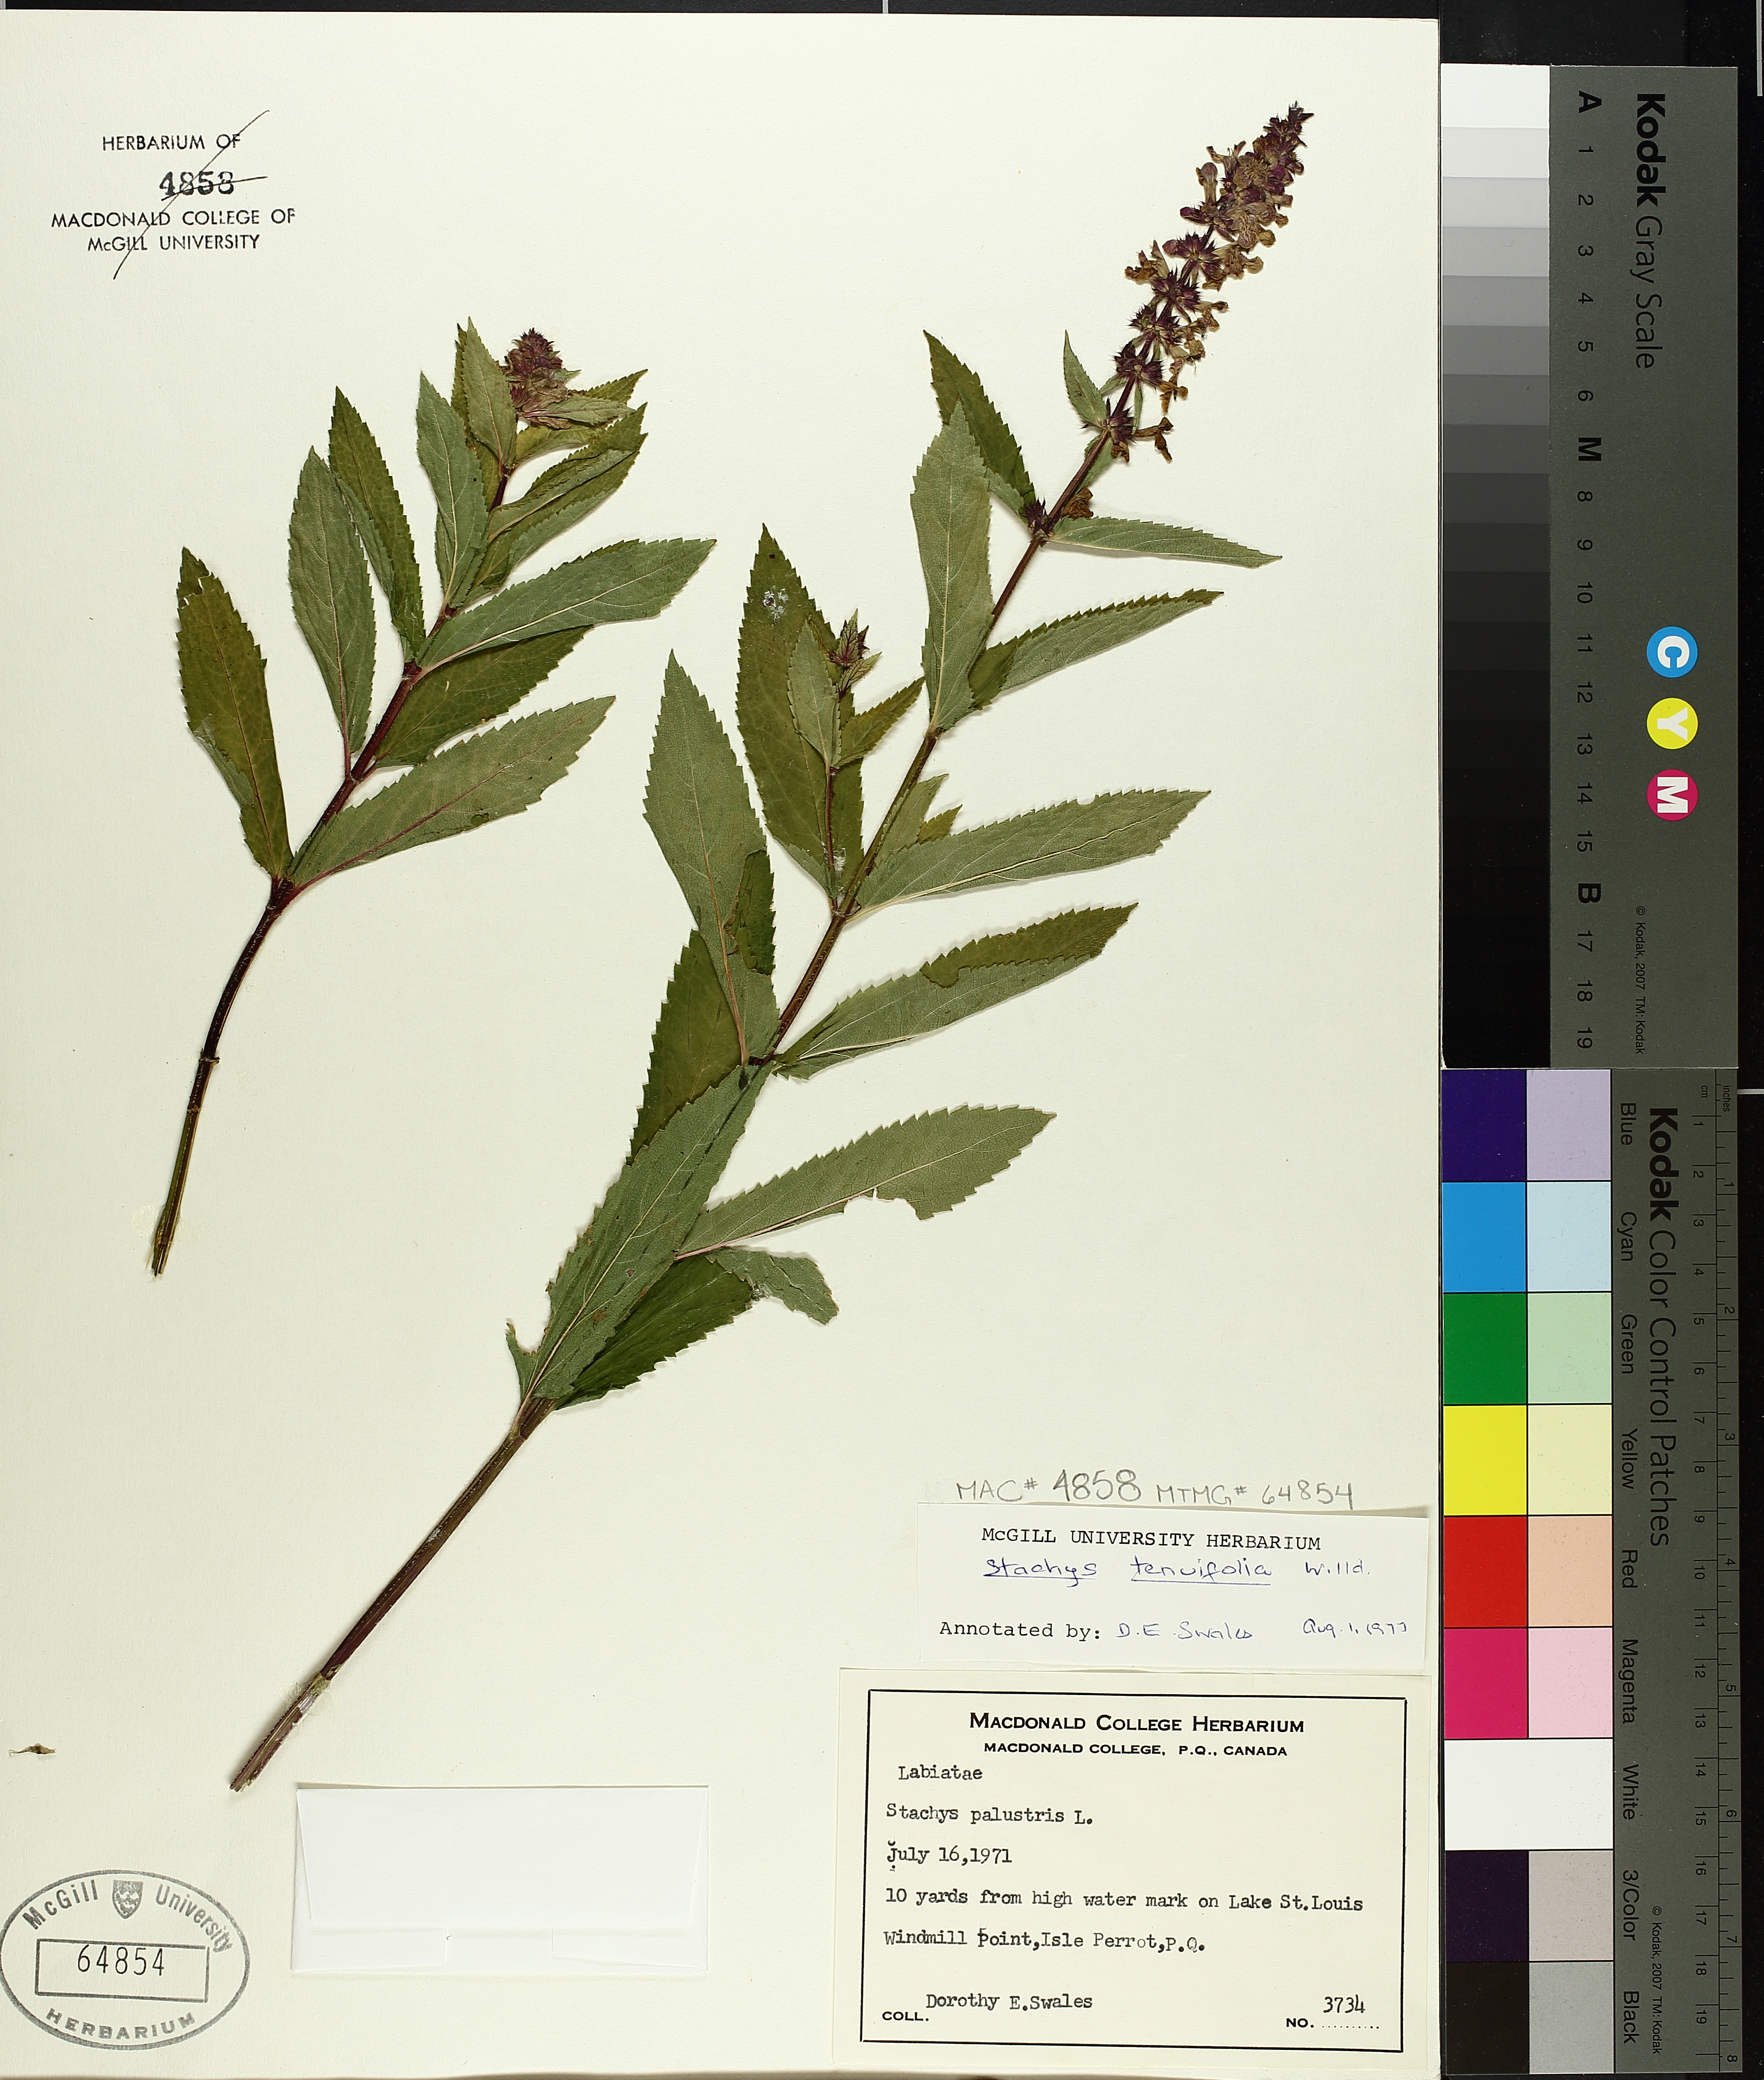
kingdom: Plantae
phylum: Tracheophyta
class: Magnoliopsida
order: Lamiales
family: Lamiaceae
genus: Stachys
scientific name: Stachys tenuifolia
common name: Smooth hedge-nettle
